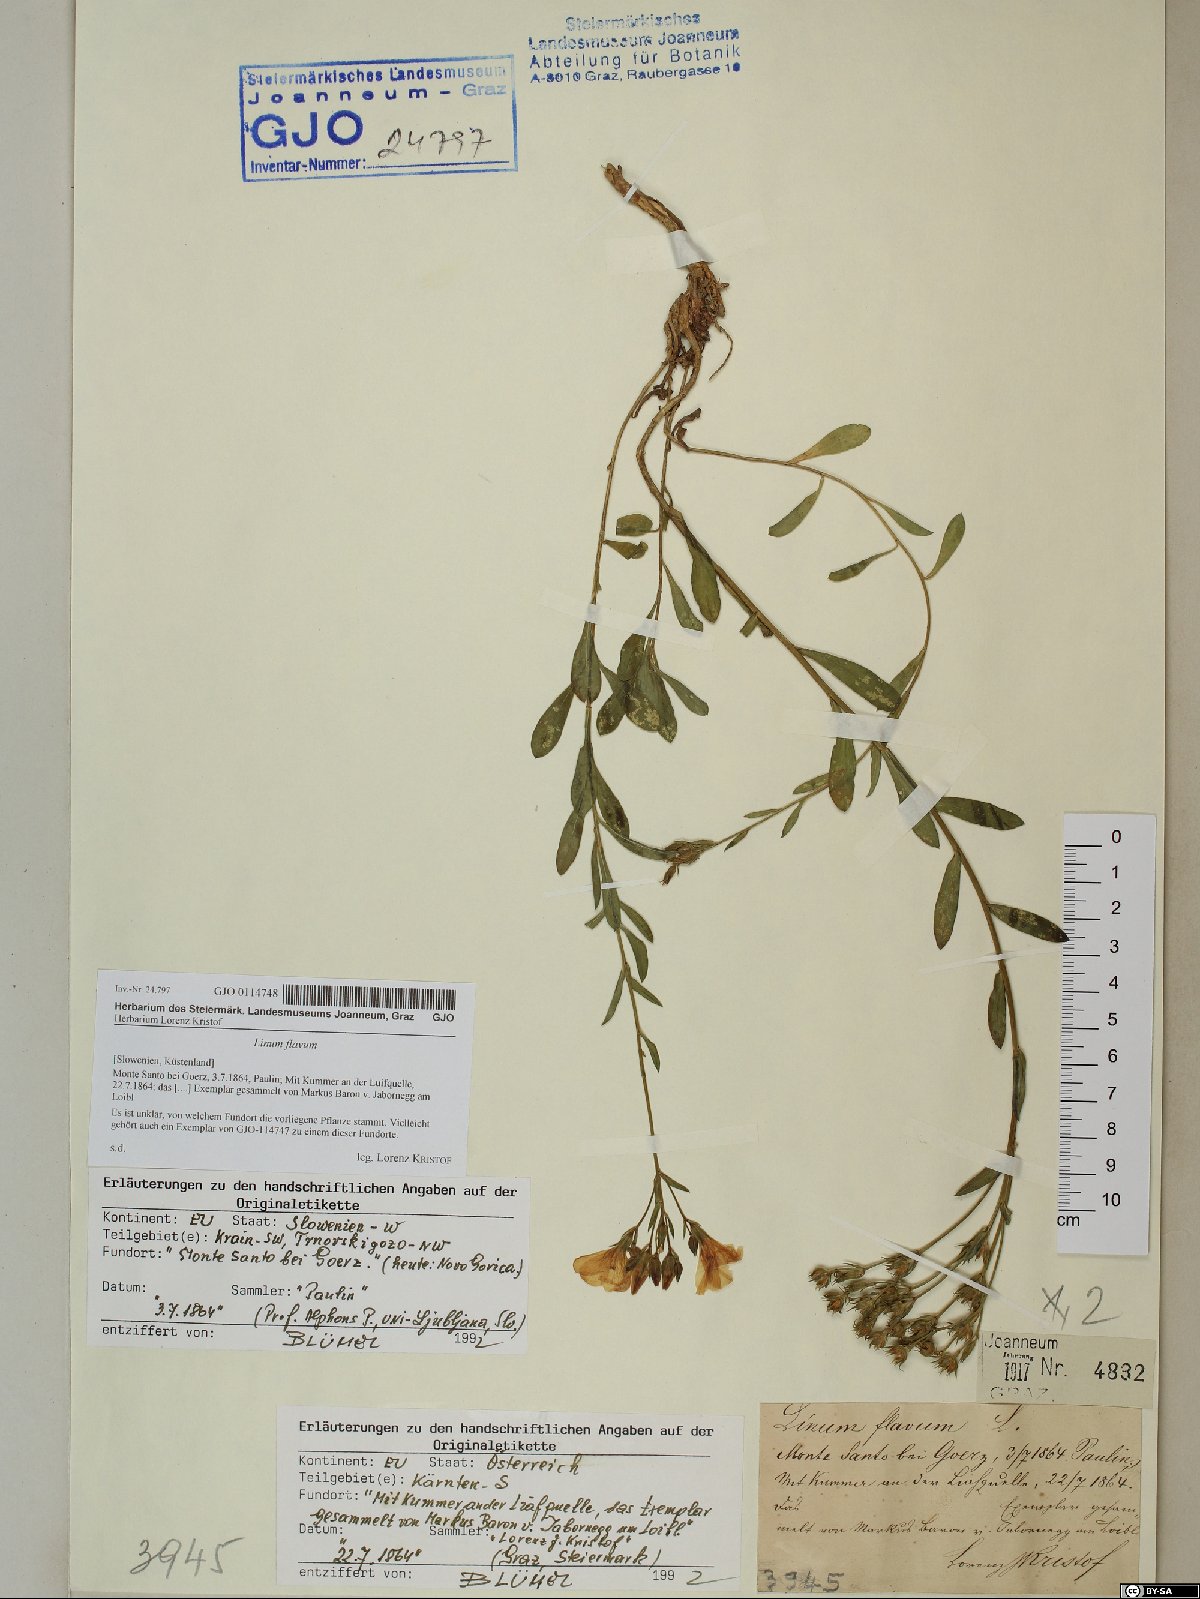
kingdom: Plantae
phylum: Tracheophyta
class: Magnoliopsida
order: Malpighiales
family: Linaceae
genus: Linum
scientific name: Linum flavum
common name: Yellow flax
